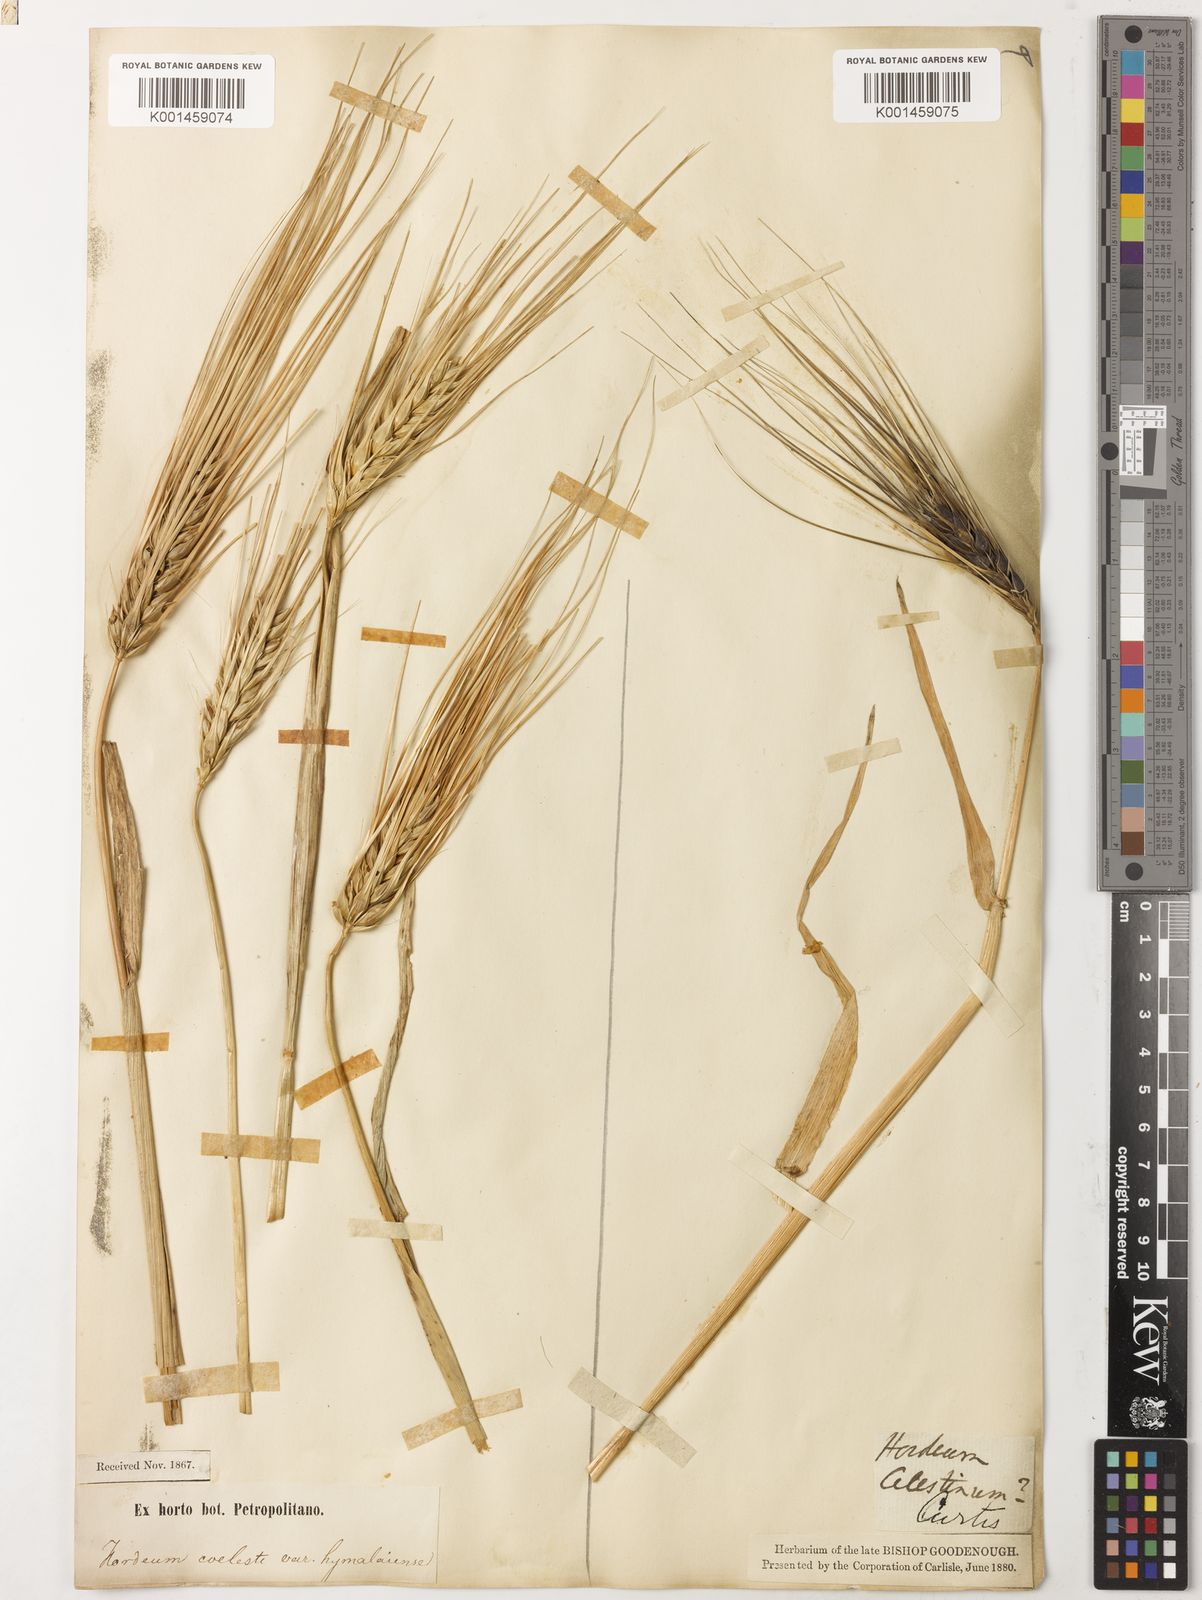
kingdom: Plantae
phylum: Tracheophyta
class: Liliopsida
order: Poales
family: Poaceae
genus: Hordeum
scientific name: Hordeum vulgare
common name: Common barley
